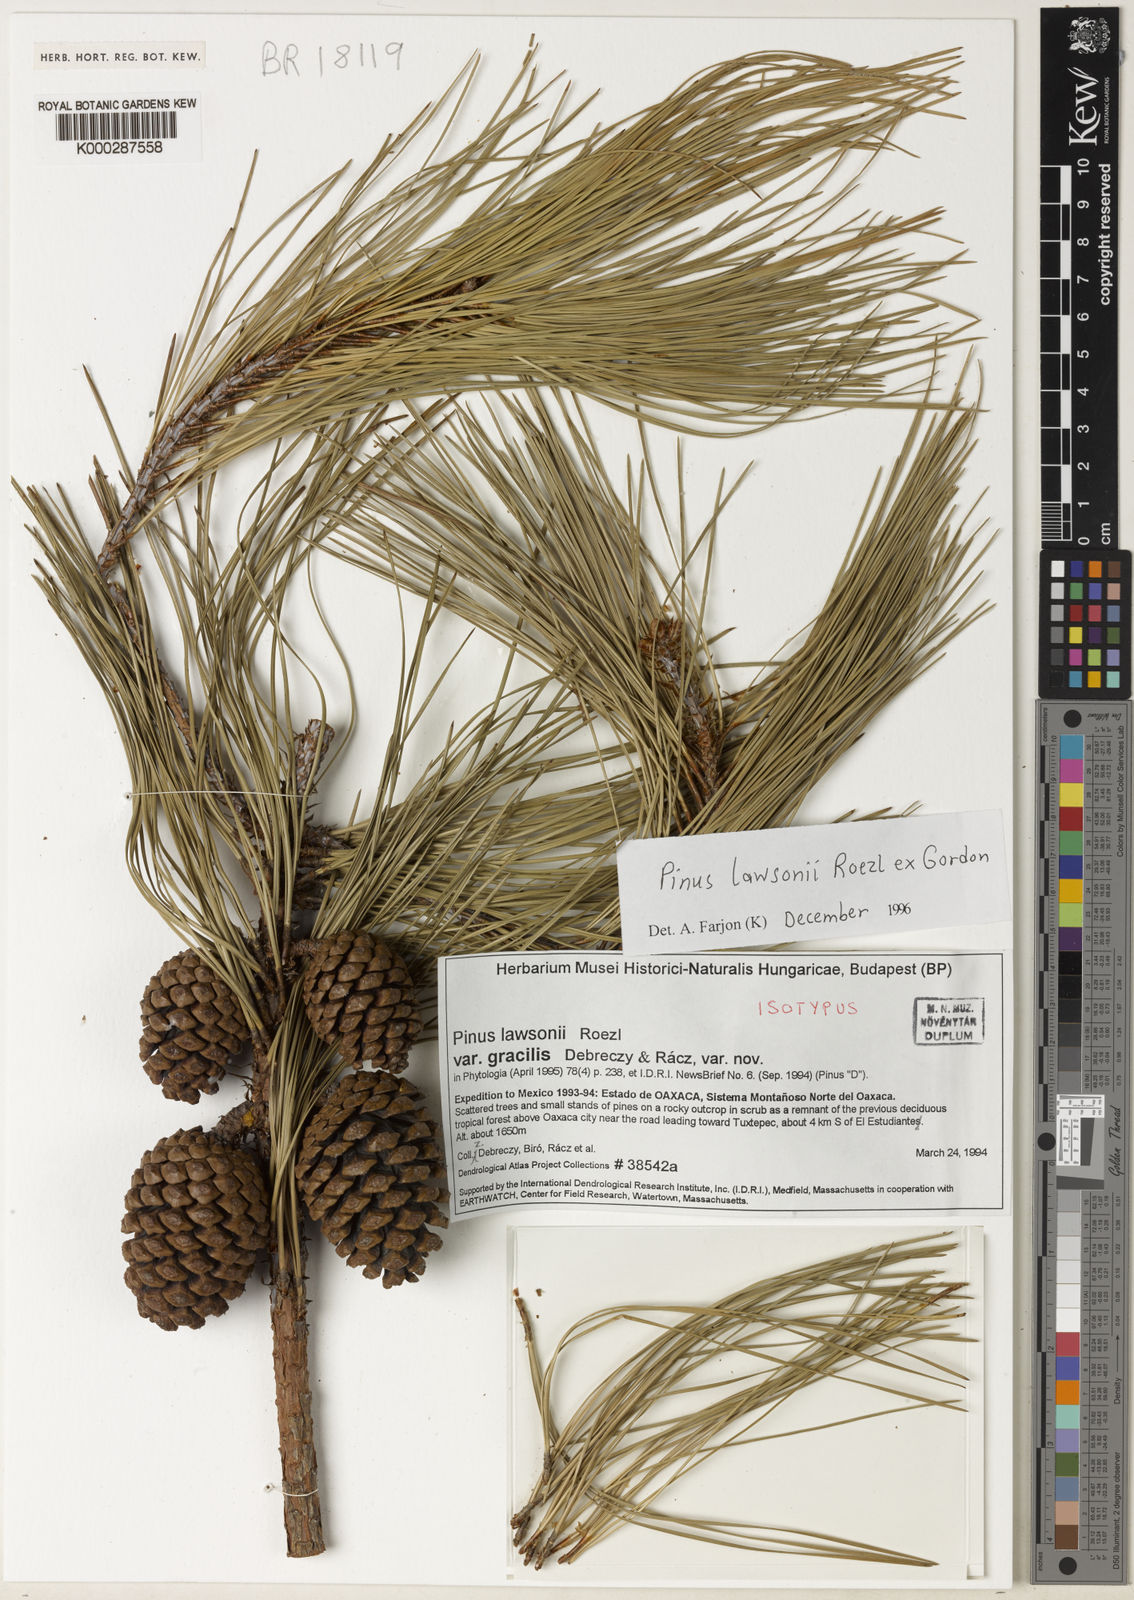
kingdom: Plantae
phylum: Tracheophyta
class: Pinopsida
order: Pinales
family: Pinaceae
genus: Pinus
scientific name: Pinus lawsonii
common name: Lawson's pine
